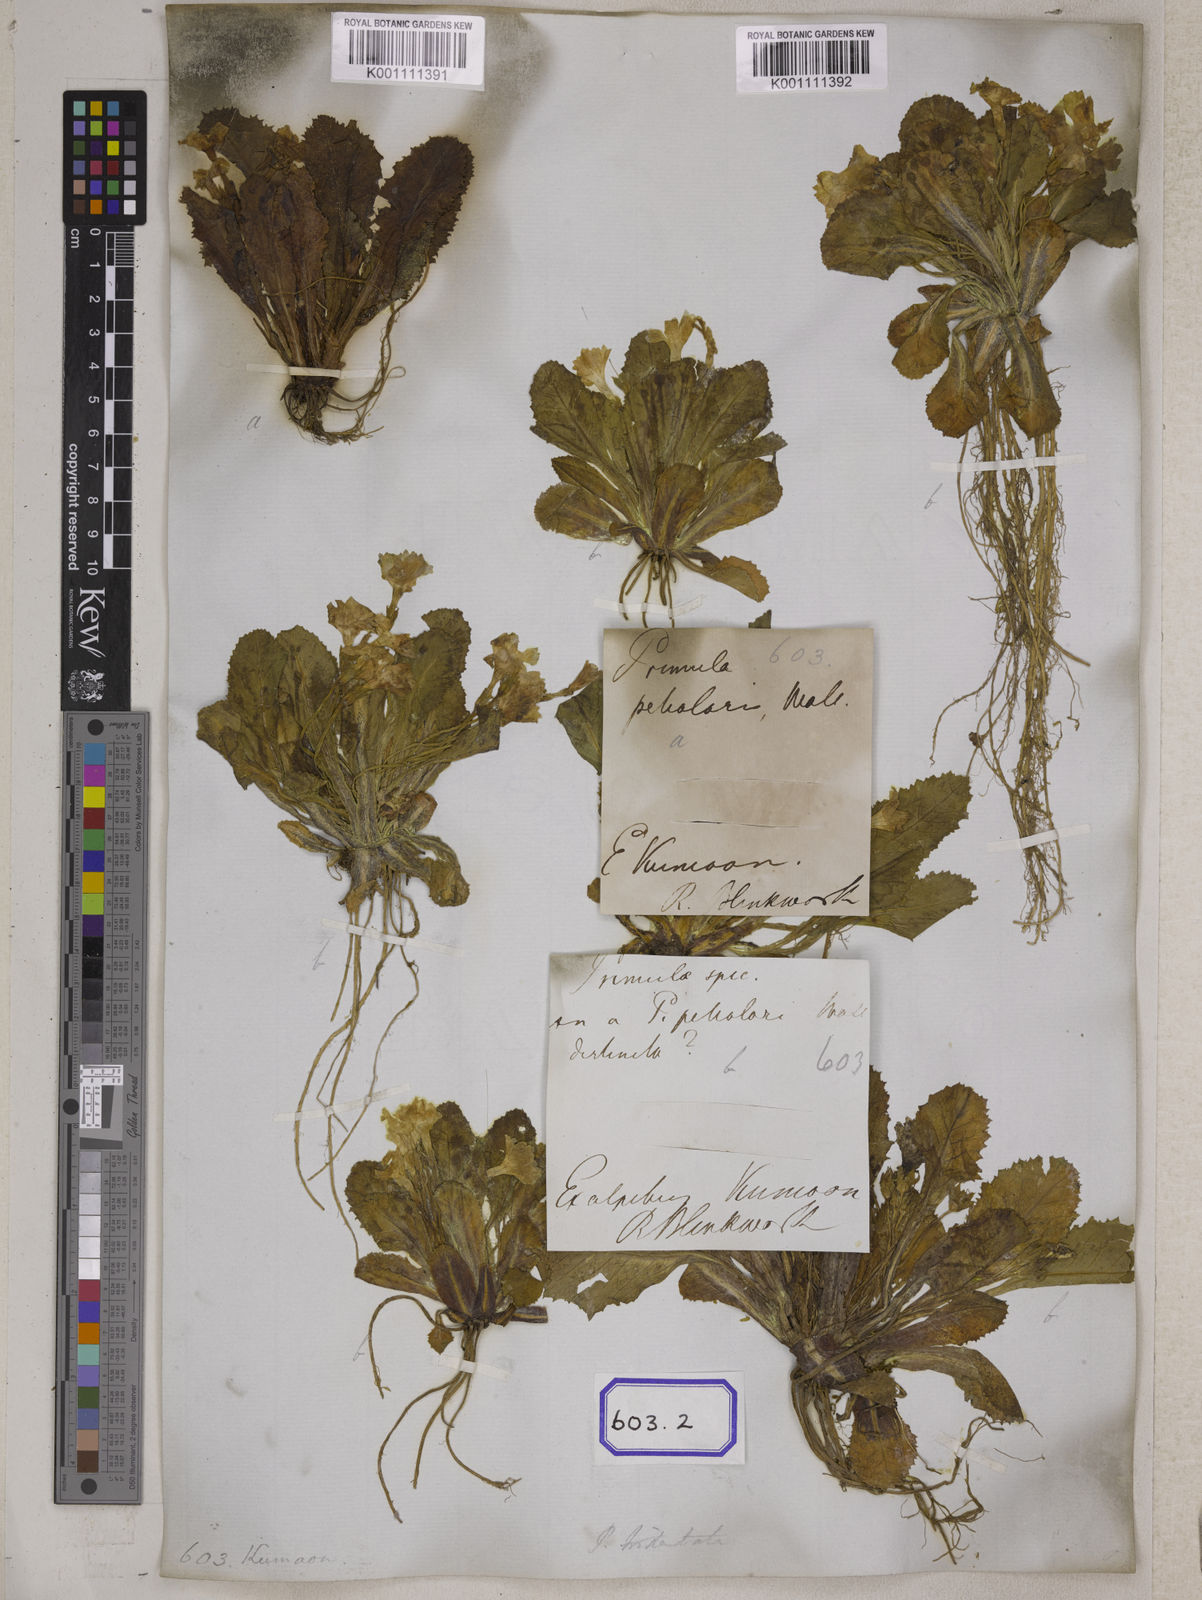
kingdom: Plantae
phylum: Tracheophyta
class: Magnoliopsida
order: Ericales
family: Primulaceae
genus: Primula
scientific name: Primula petiolaris
